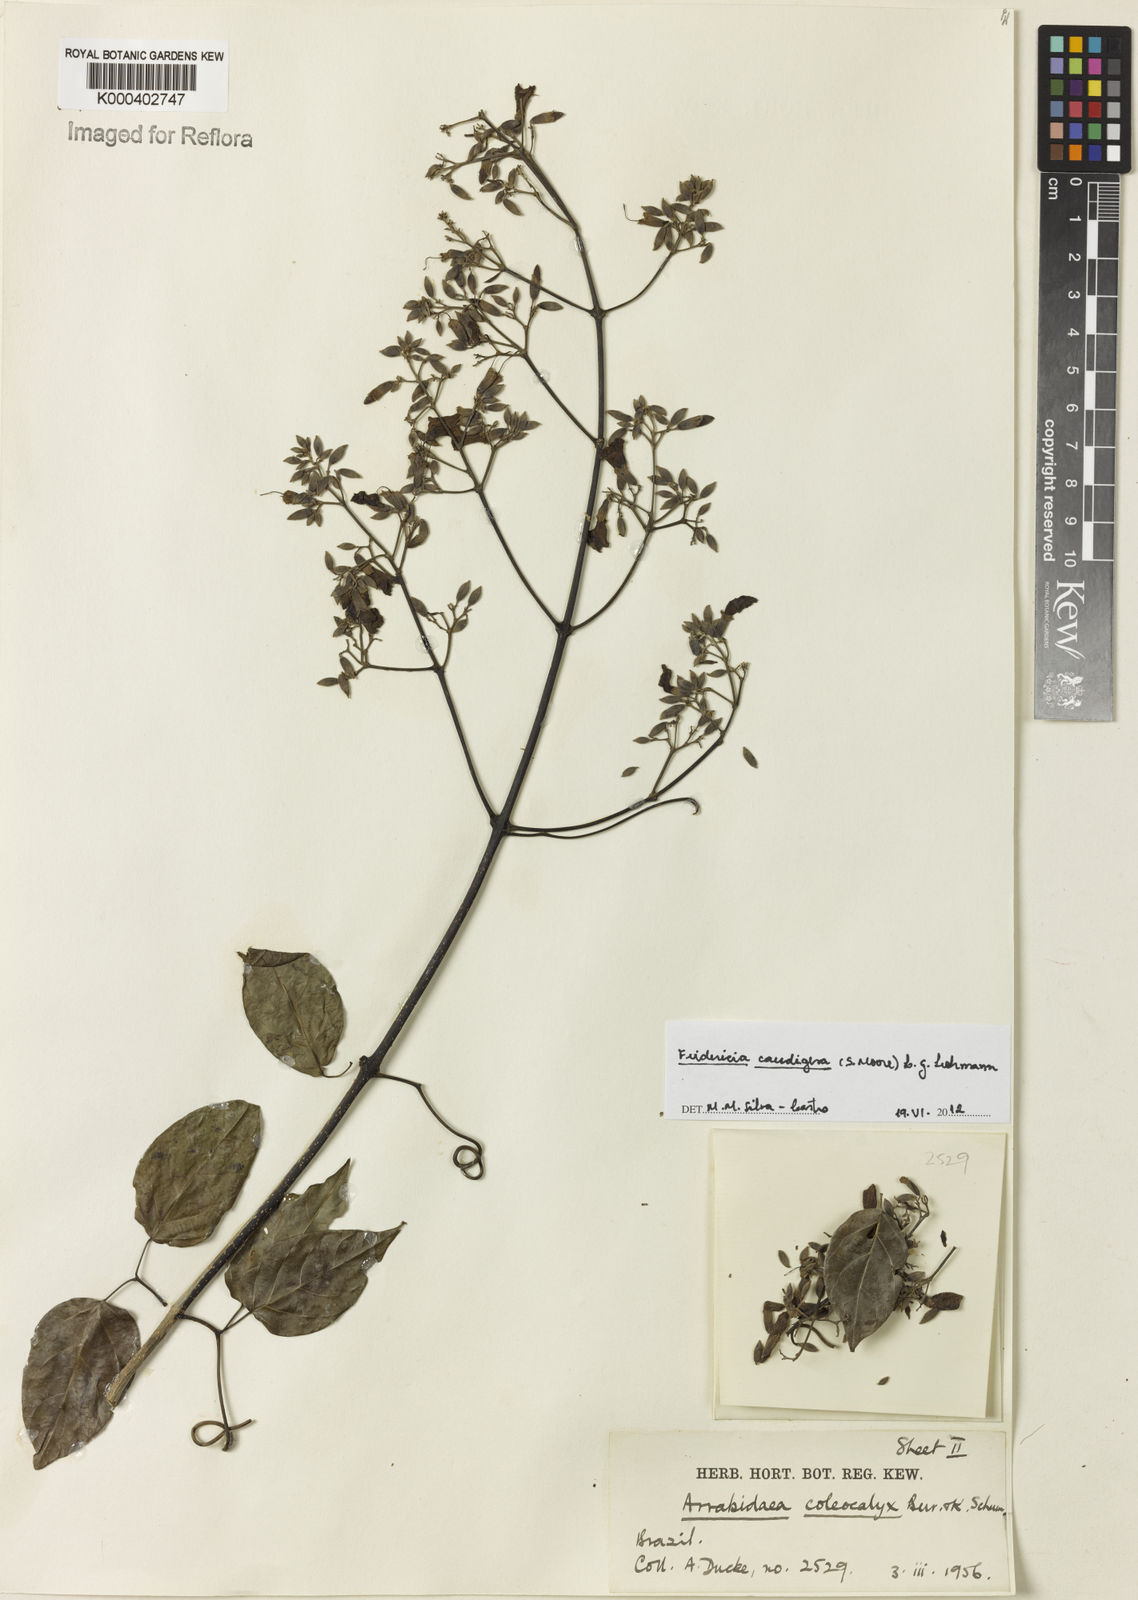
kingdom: Plantae
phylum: Tracheophyta
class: Magnoliopsida
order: Lamiales
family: Bignoniaceae
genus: Fridericia
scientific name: Fridericia caudigera
